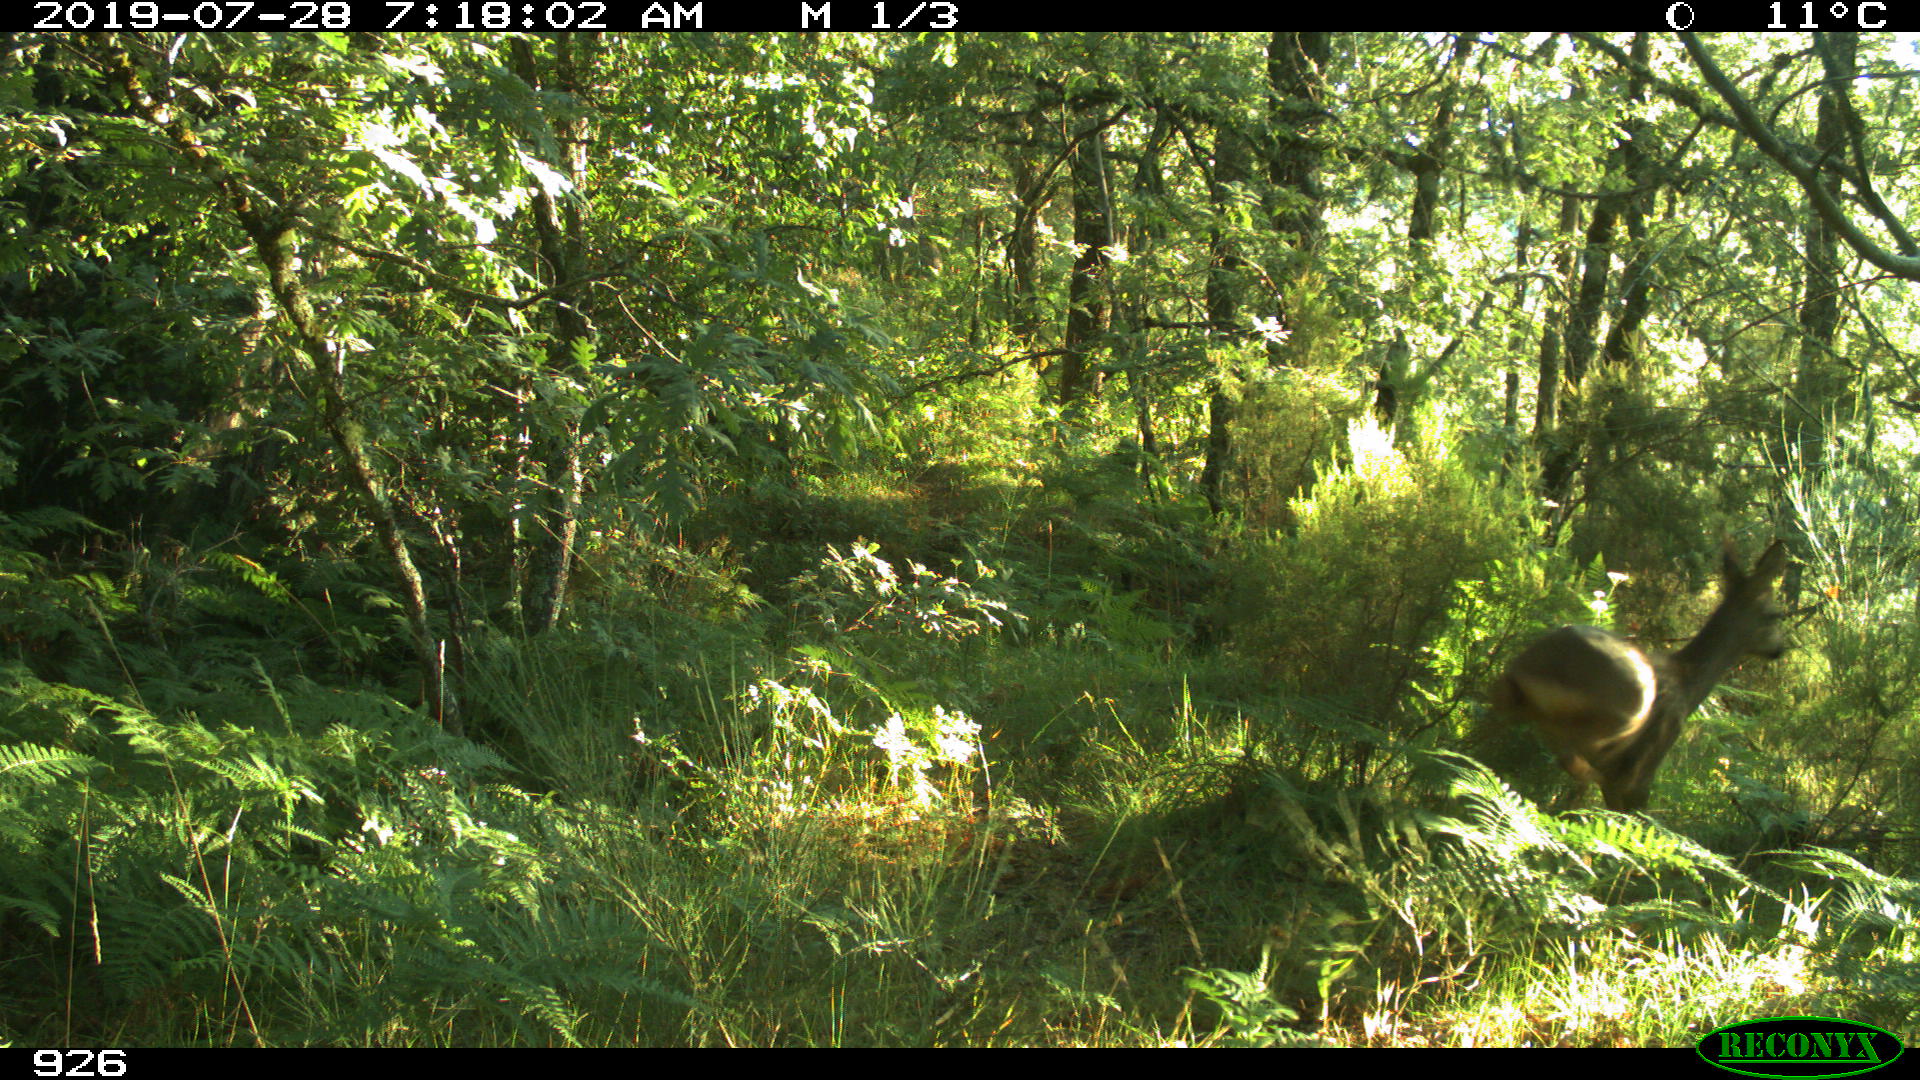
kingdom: Animalia
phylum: Chordata
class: Mammalia
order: Artiodactyla
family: Cervidae
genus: Capreolus
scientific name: Capreolus capreolus
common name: Western roe deer
